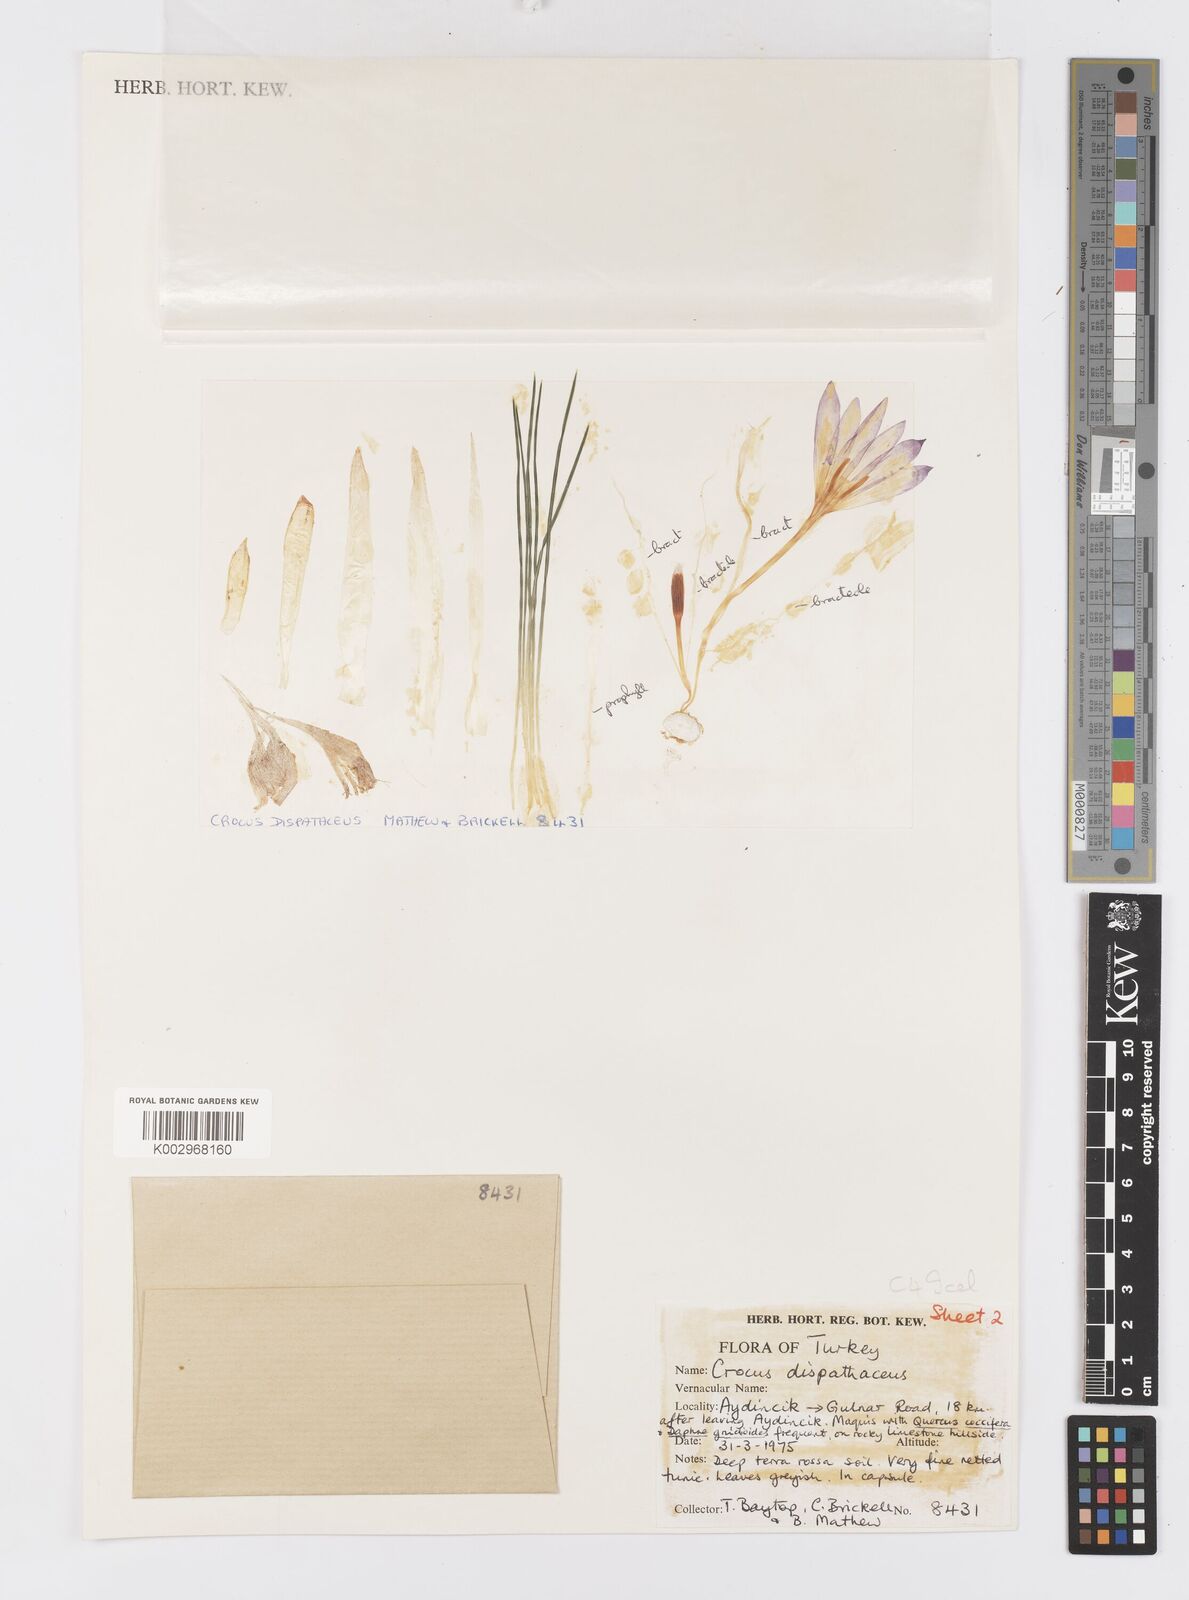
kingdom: Plantae
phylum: Tracheophyta
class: Liliopsida
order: Asparagales
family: Iridaceae
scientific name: Iridaceae
